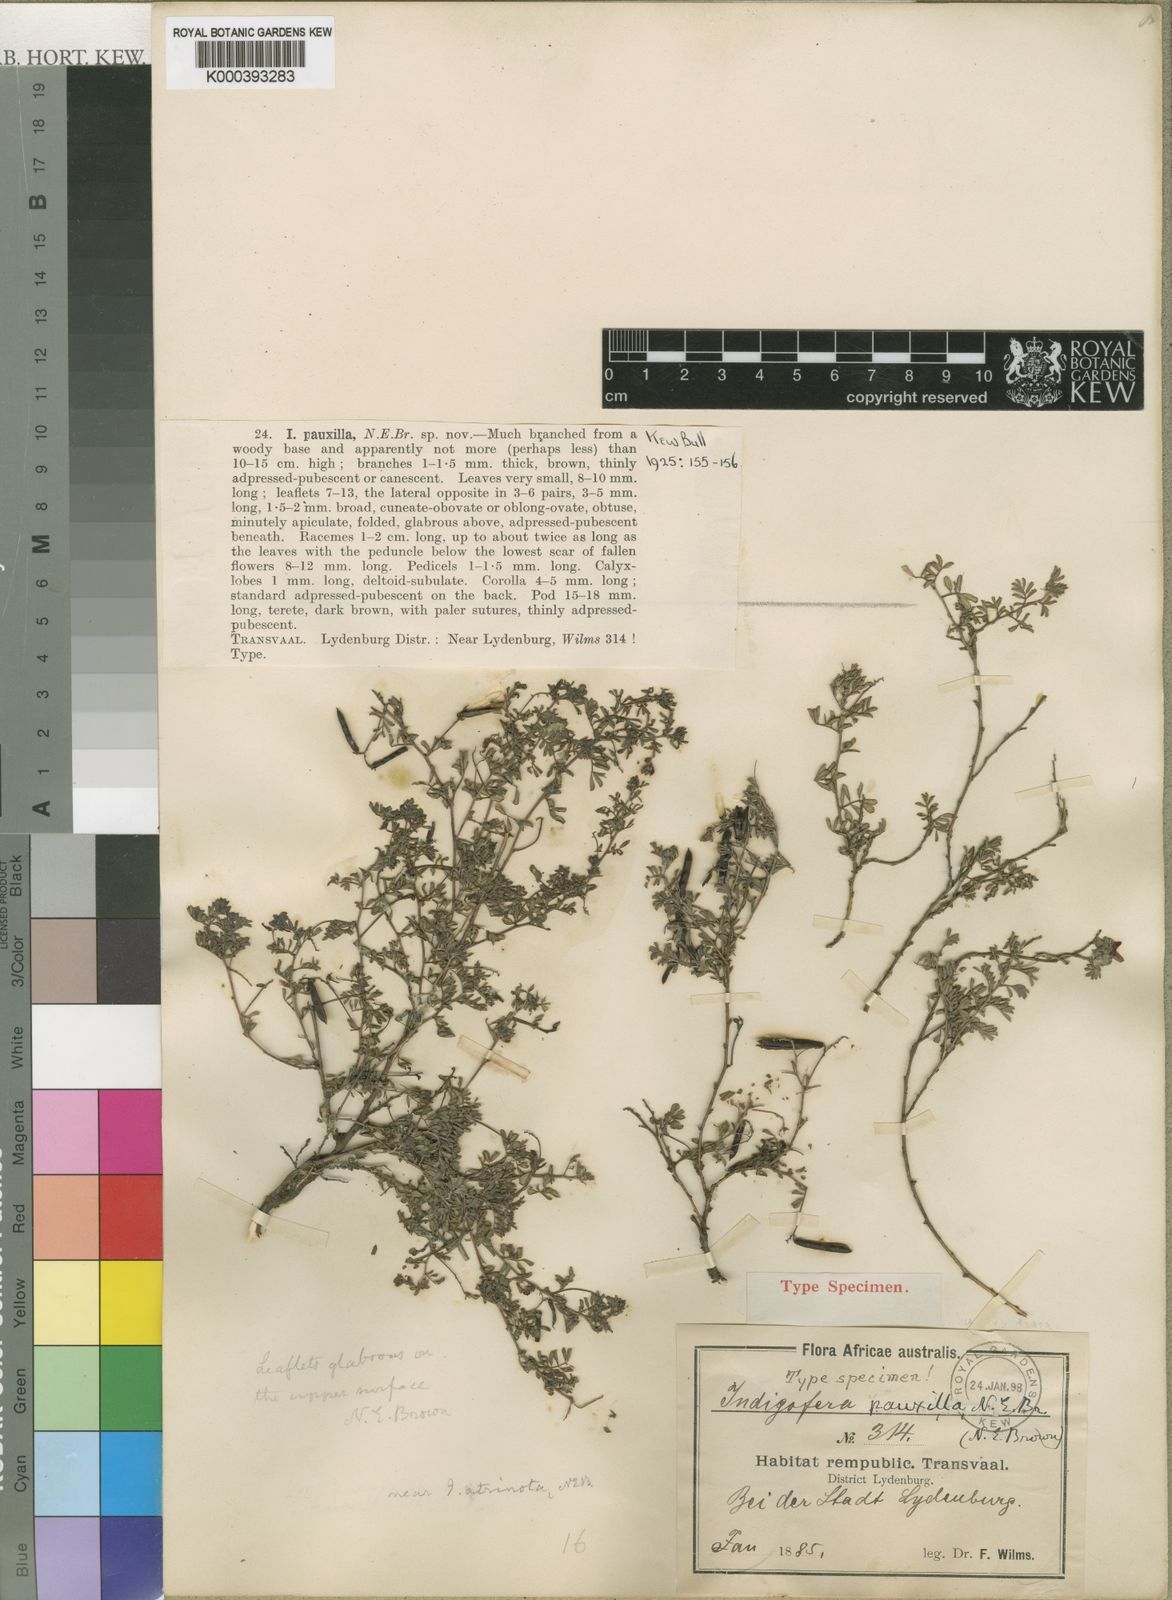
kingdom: Plantae
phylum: Tracheophyta
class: Magnoliopsida
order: Fabales
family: Fabaceae
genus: Indigofera
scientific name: Indigofera evansiana
